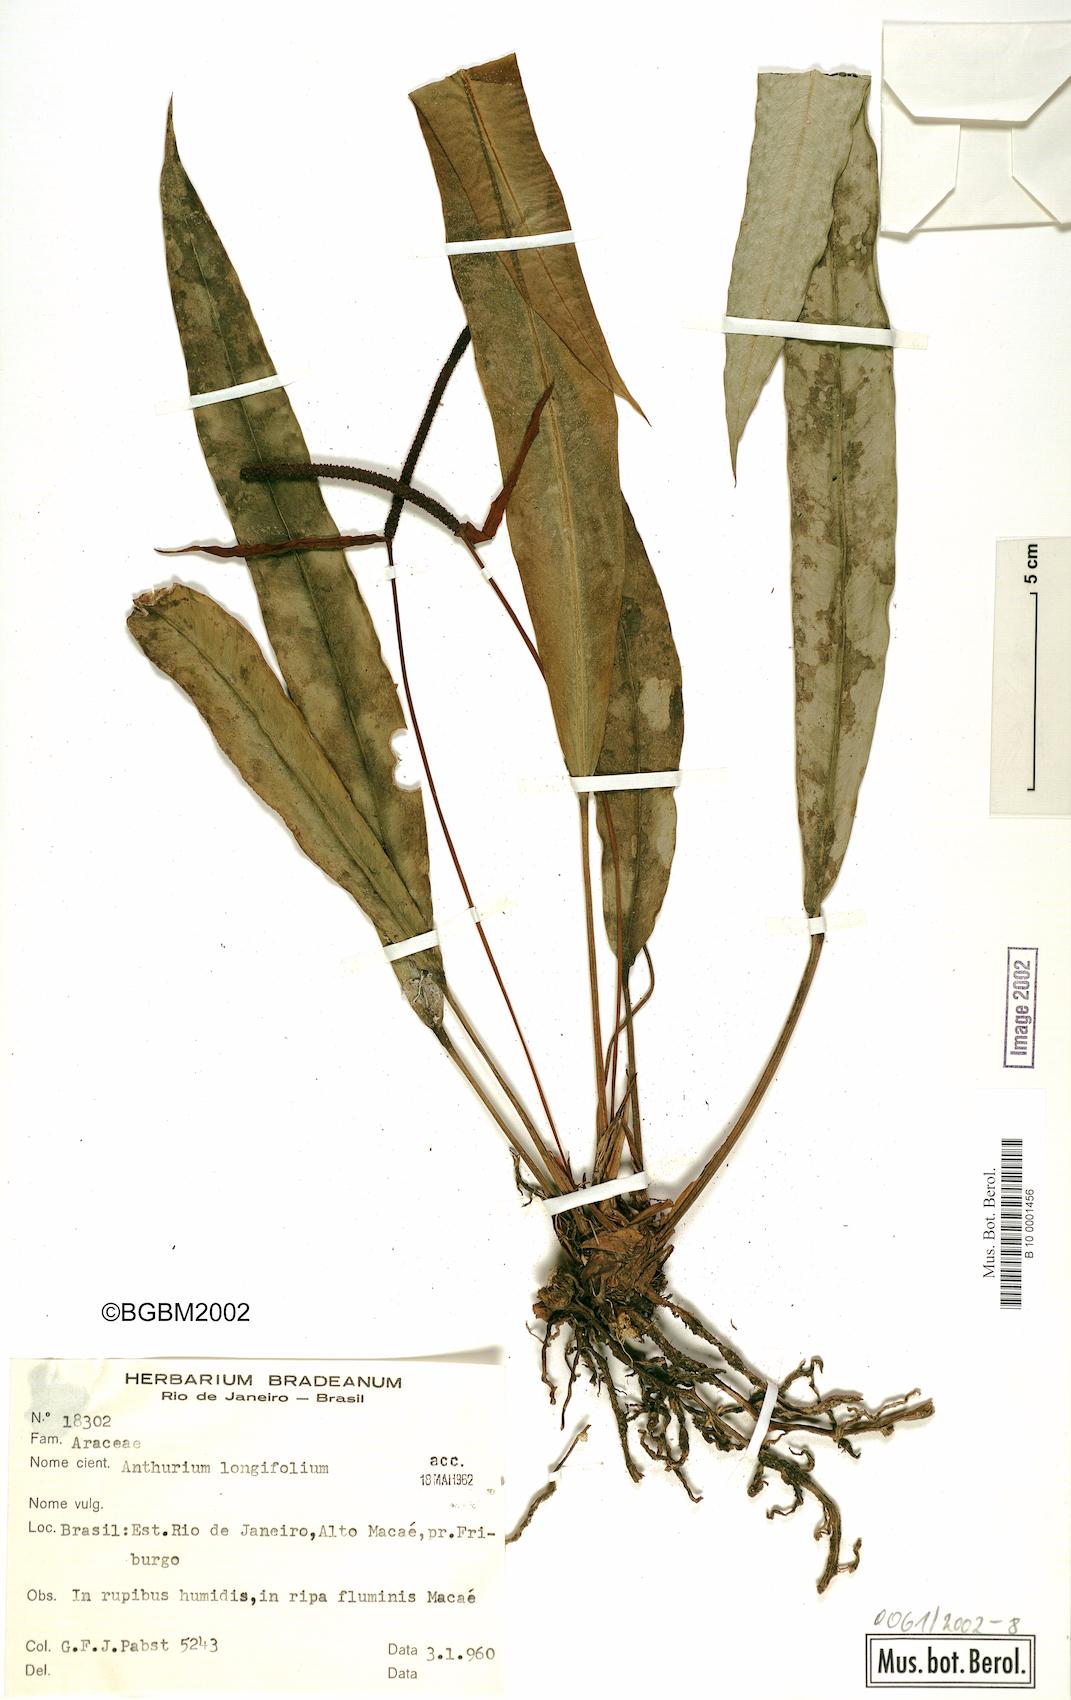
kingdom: Plantae
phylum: Tracheophyta
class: Liliopsida
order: Alismatales
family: Araceae
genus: Anthurium
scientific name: Anthurium longifolium
